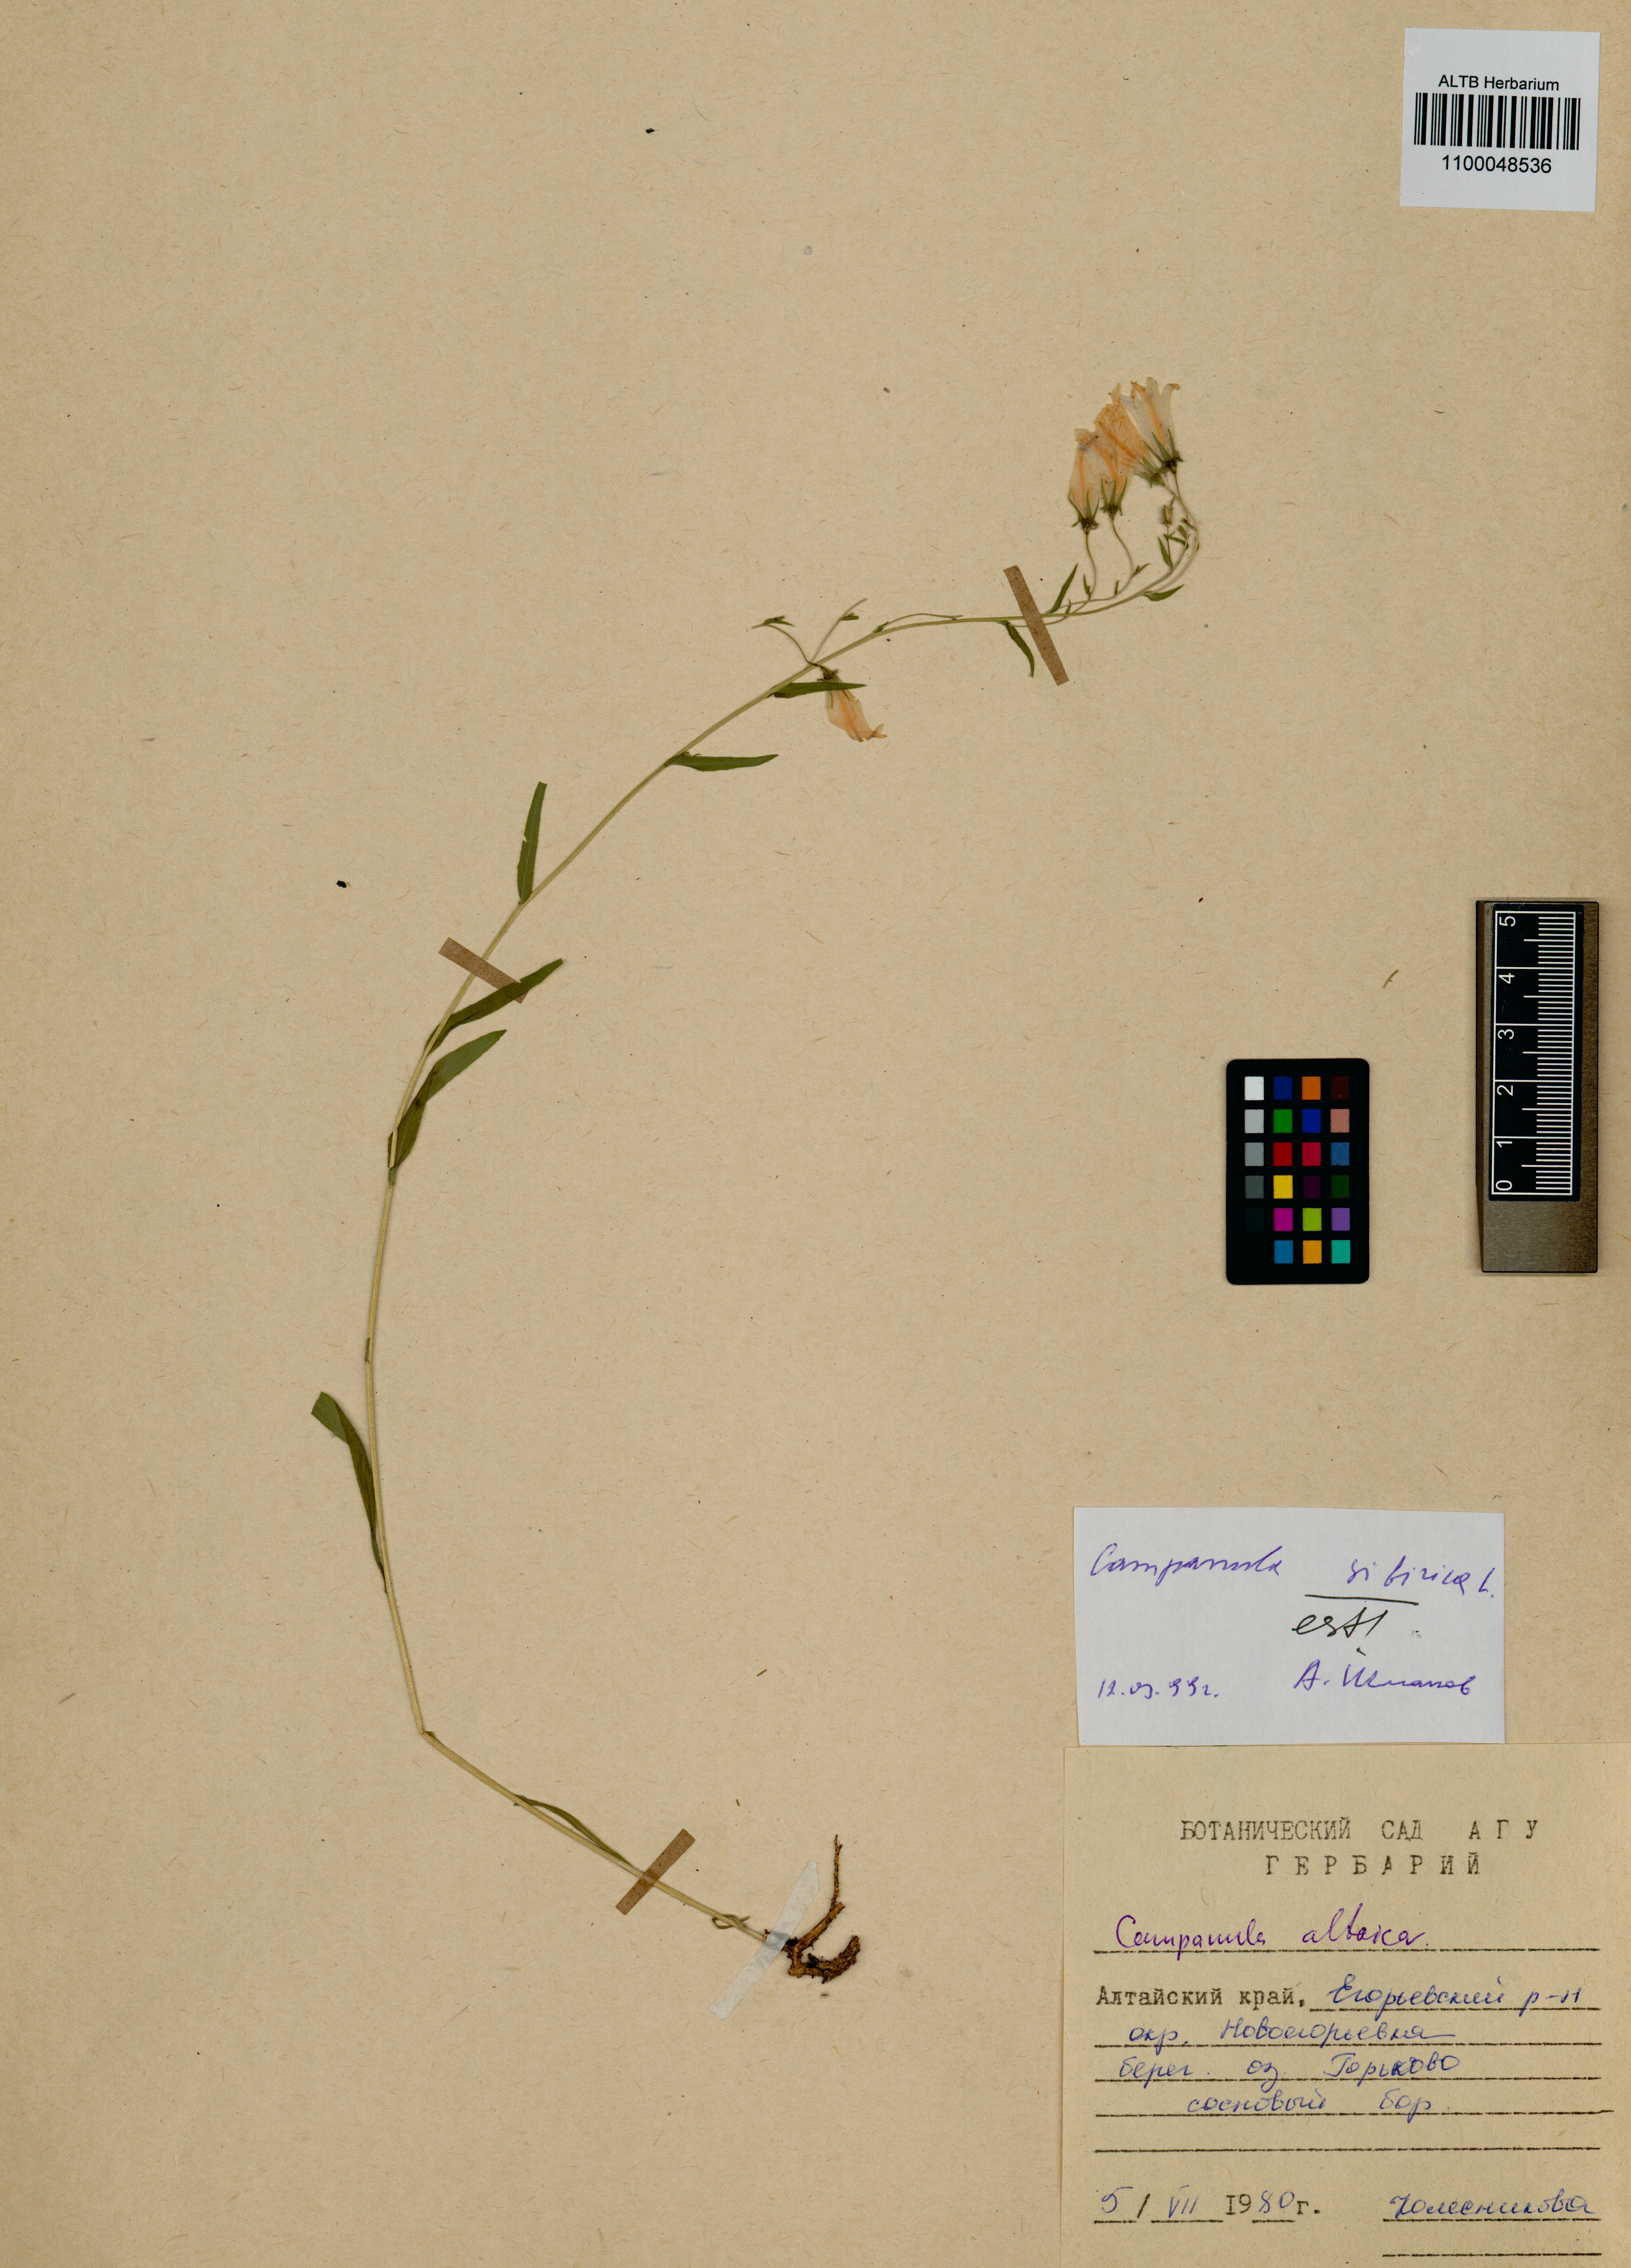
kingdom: Plantae
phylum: Tracheophyta
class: Magnoliopsida
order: Asterales
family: Campanulaceae
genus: Campanula
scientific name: Campanula sibirica
